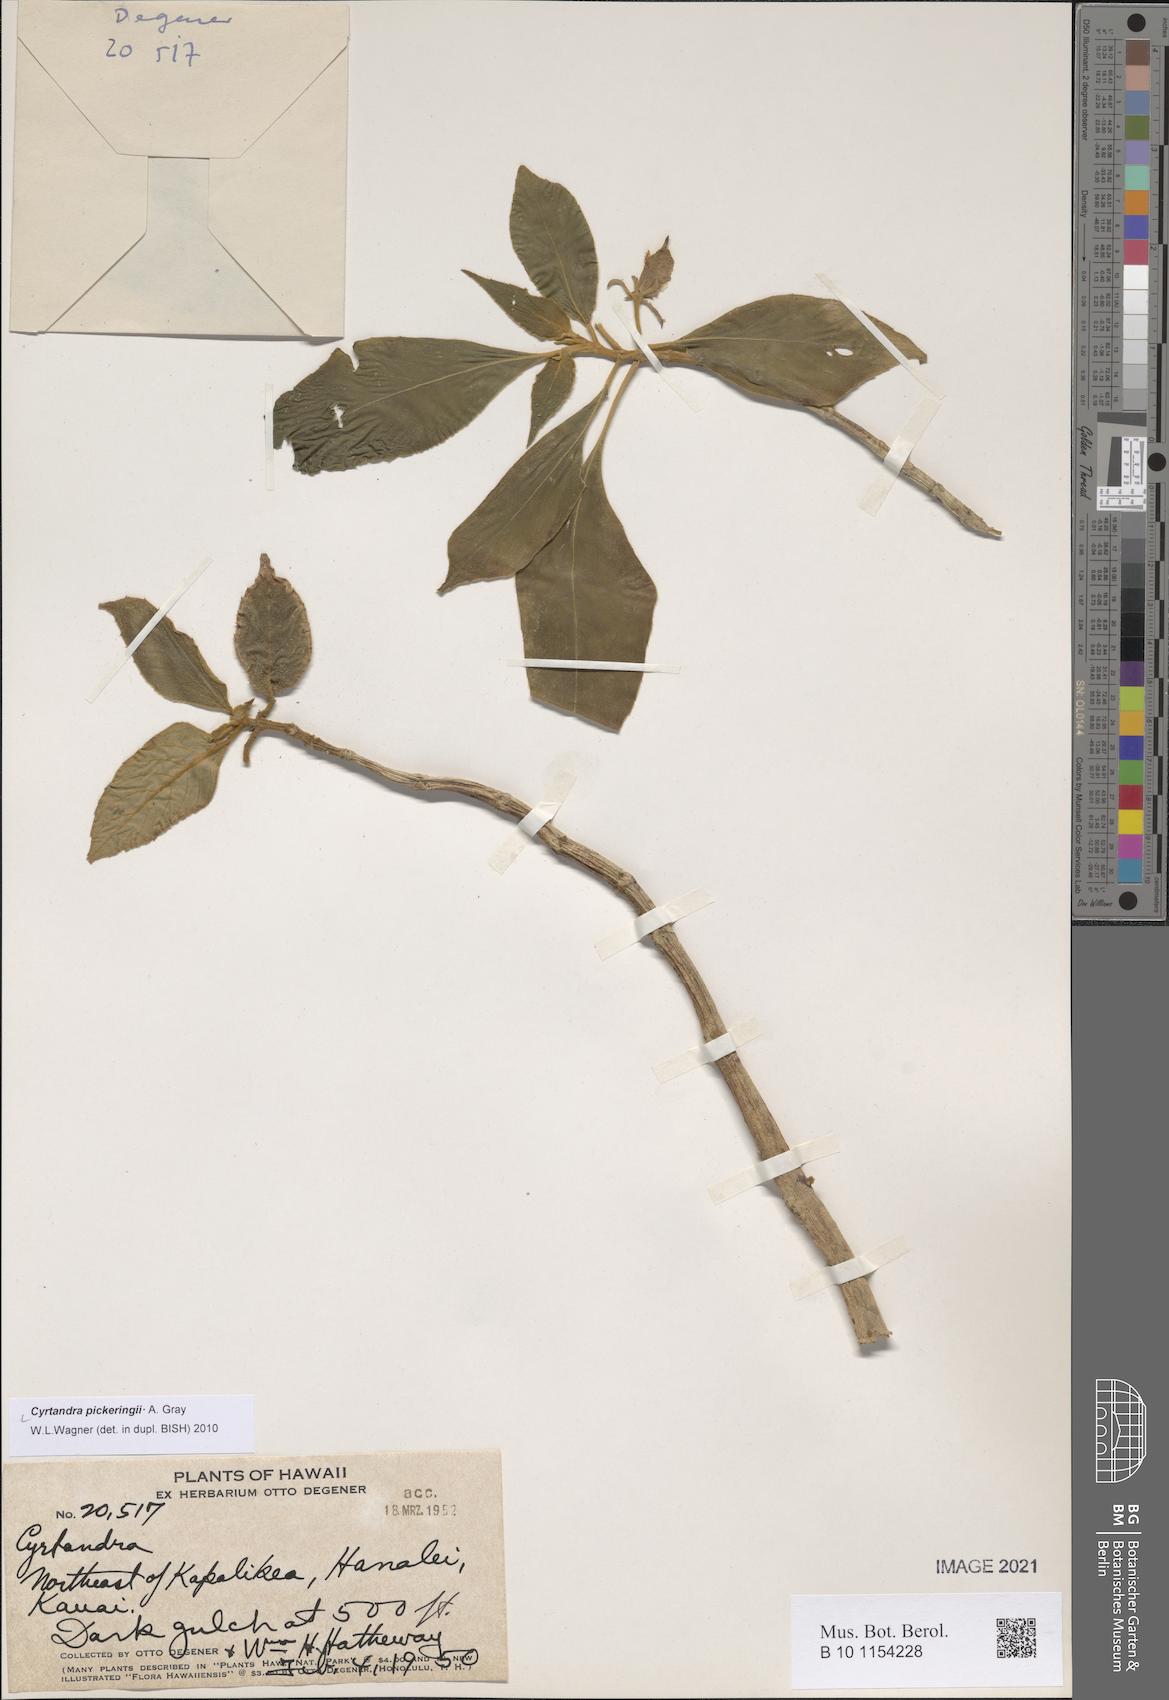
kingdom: Plantae
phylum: Tracheophyta
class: Magnoliopsida
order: Lamiales
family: Gesneriaceae
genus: Cyrtandra
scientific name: Cyrtandra pickeringii
